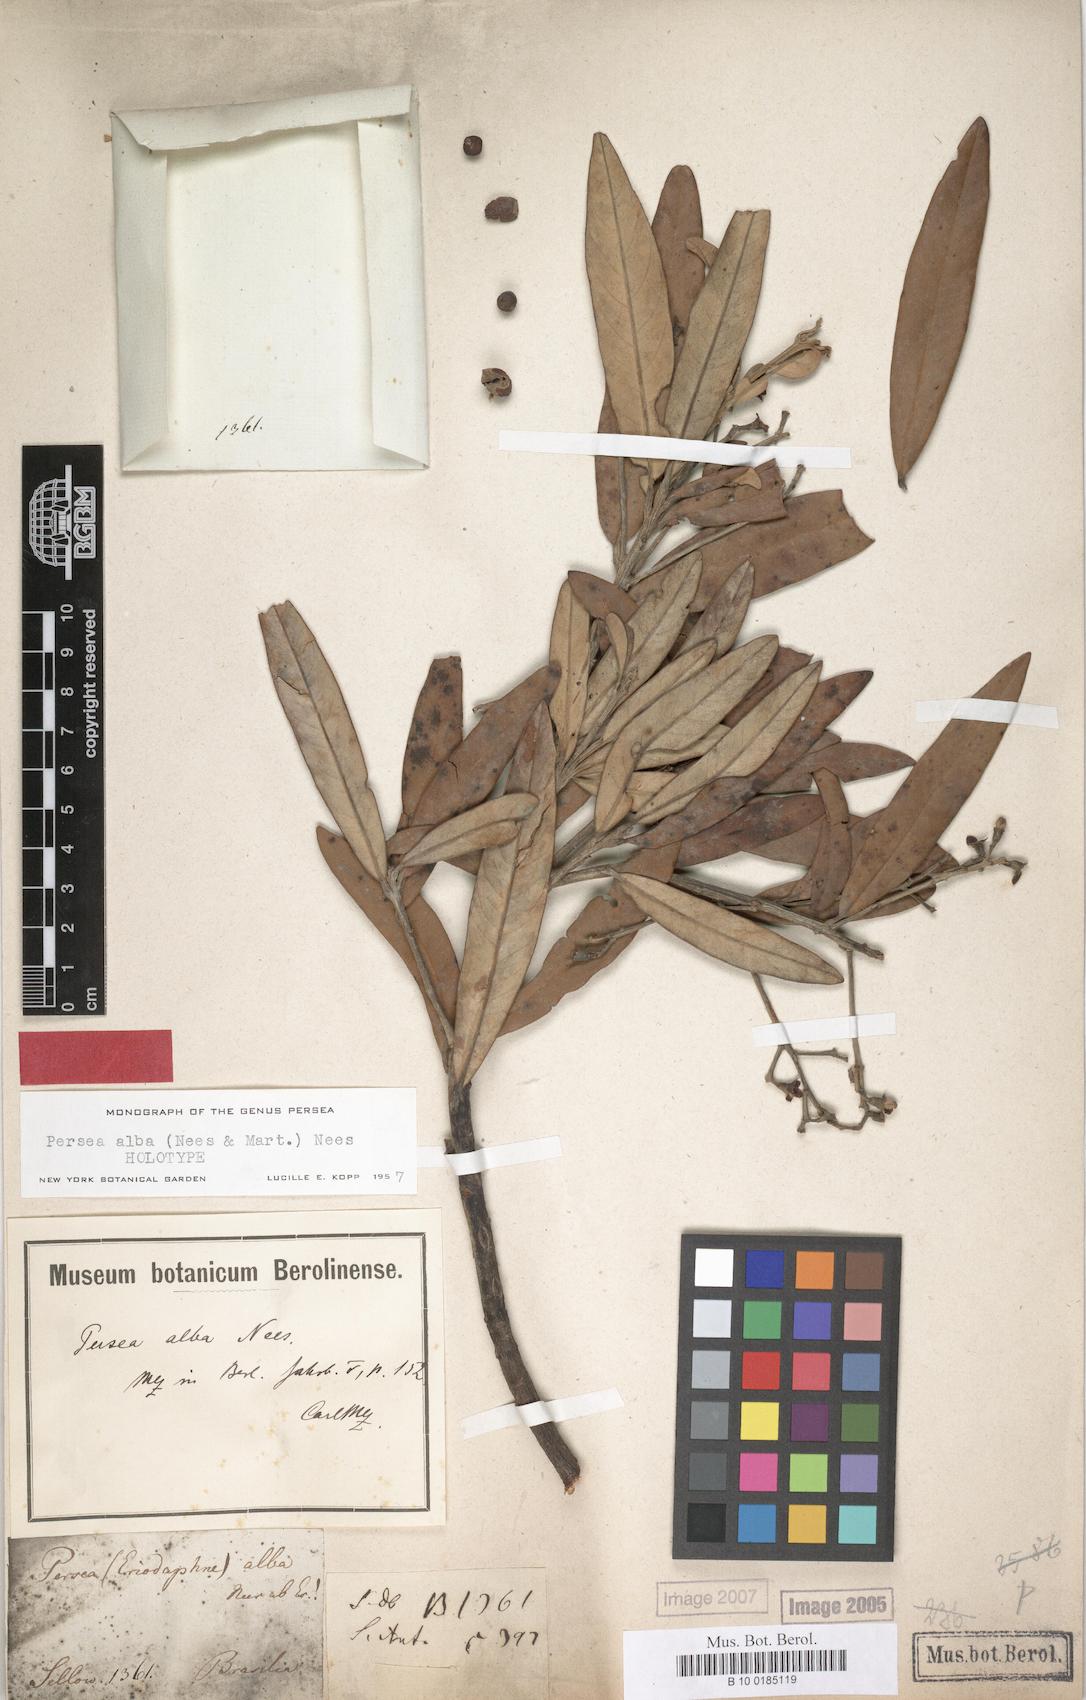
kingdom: Plantae
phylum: Tracheophyta
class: Magnoliopsida
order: Laurales
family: Lauraceae
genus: Persea
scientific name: Persea alba
